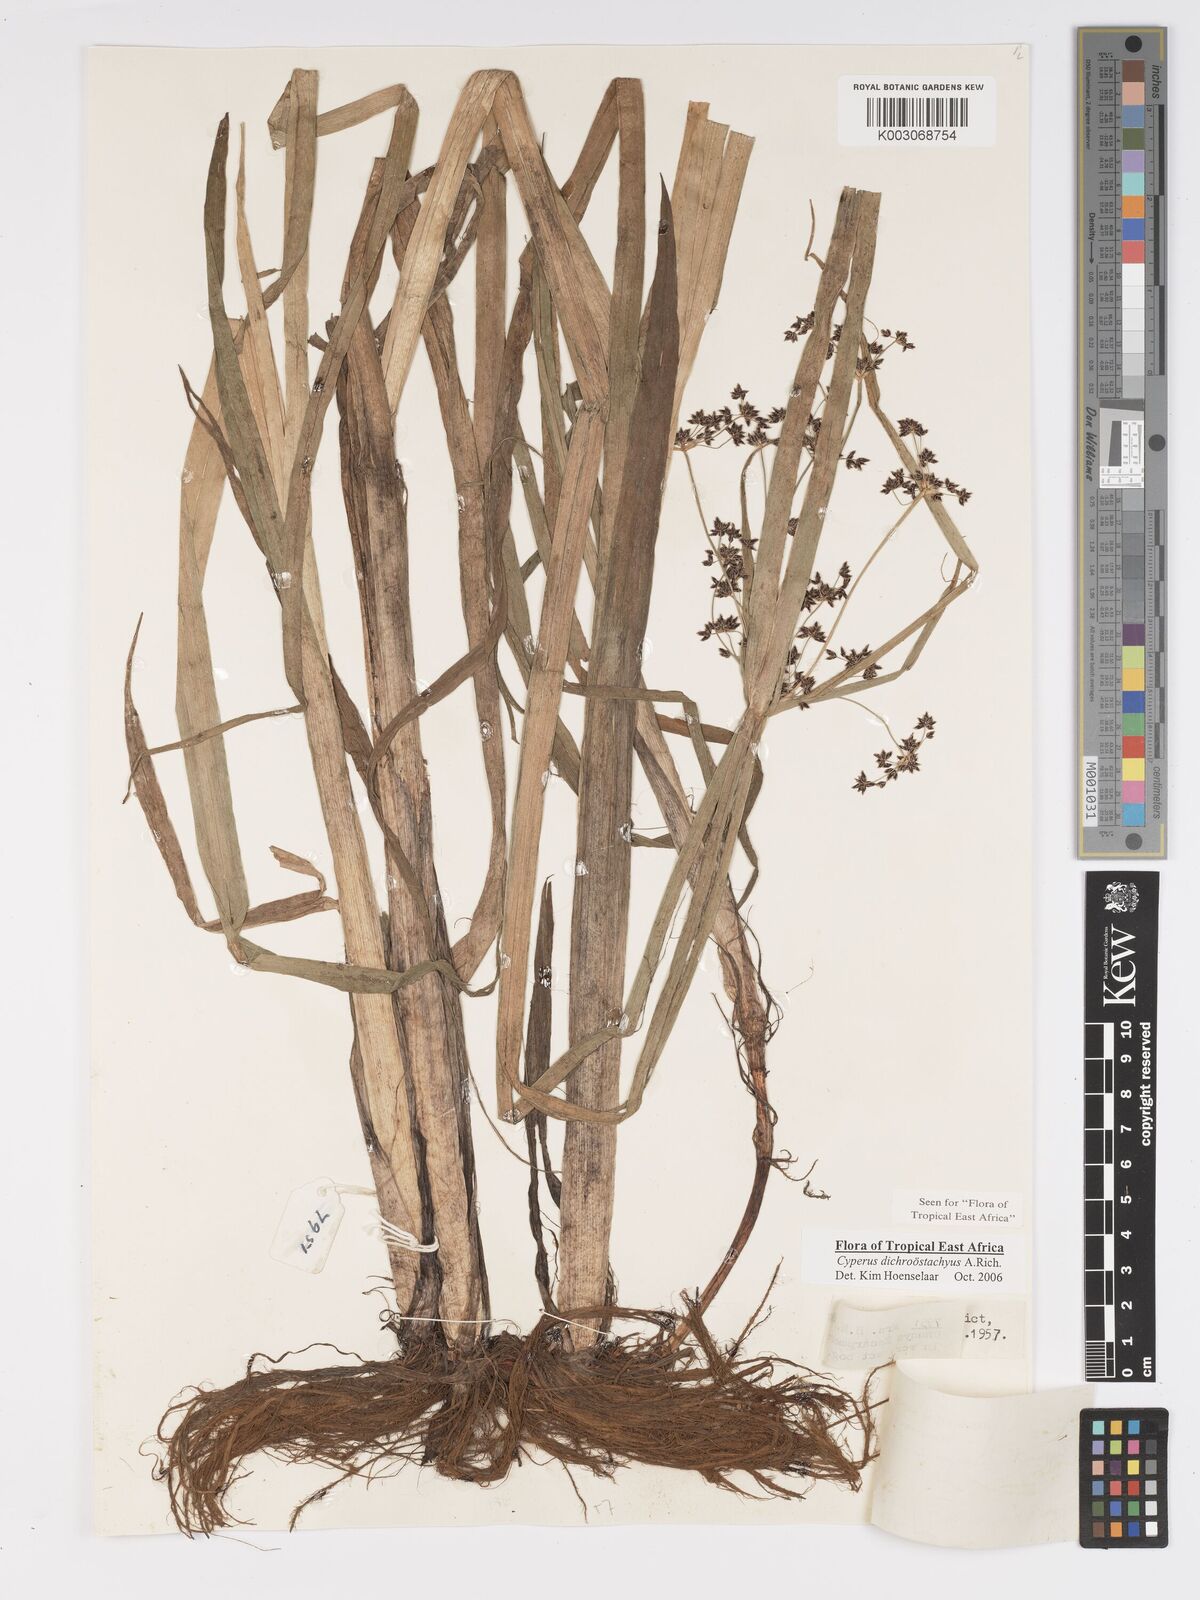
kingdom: Plantae
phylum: Tracheophyta
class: Liliopsida
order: Poales
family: Cyperaceae
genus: Cyperus
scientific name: Cyperus dichrostachyus
